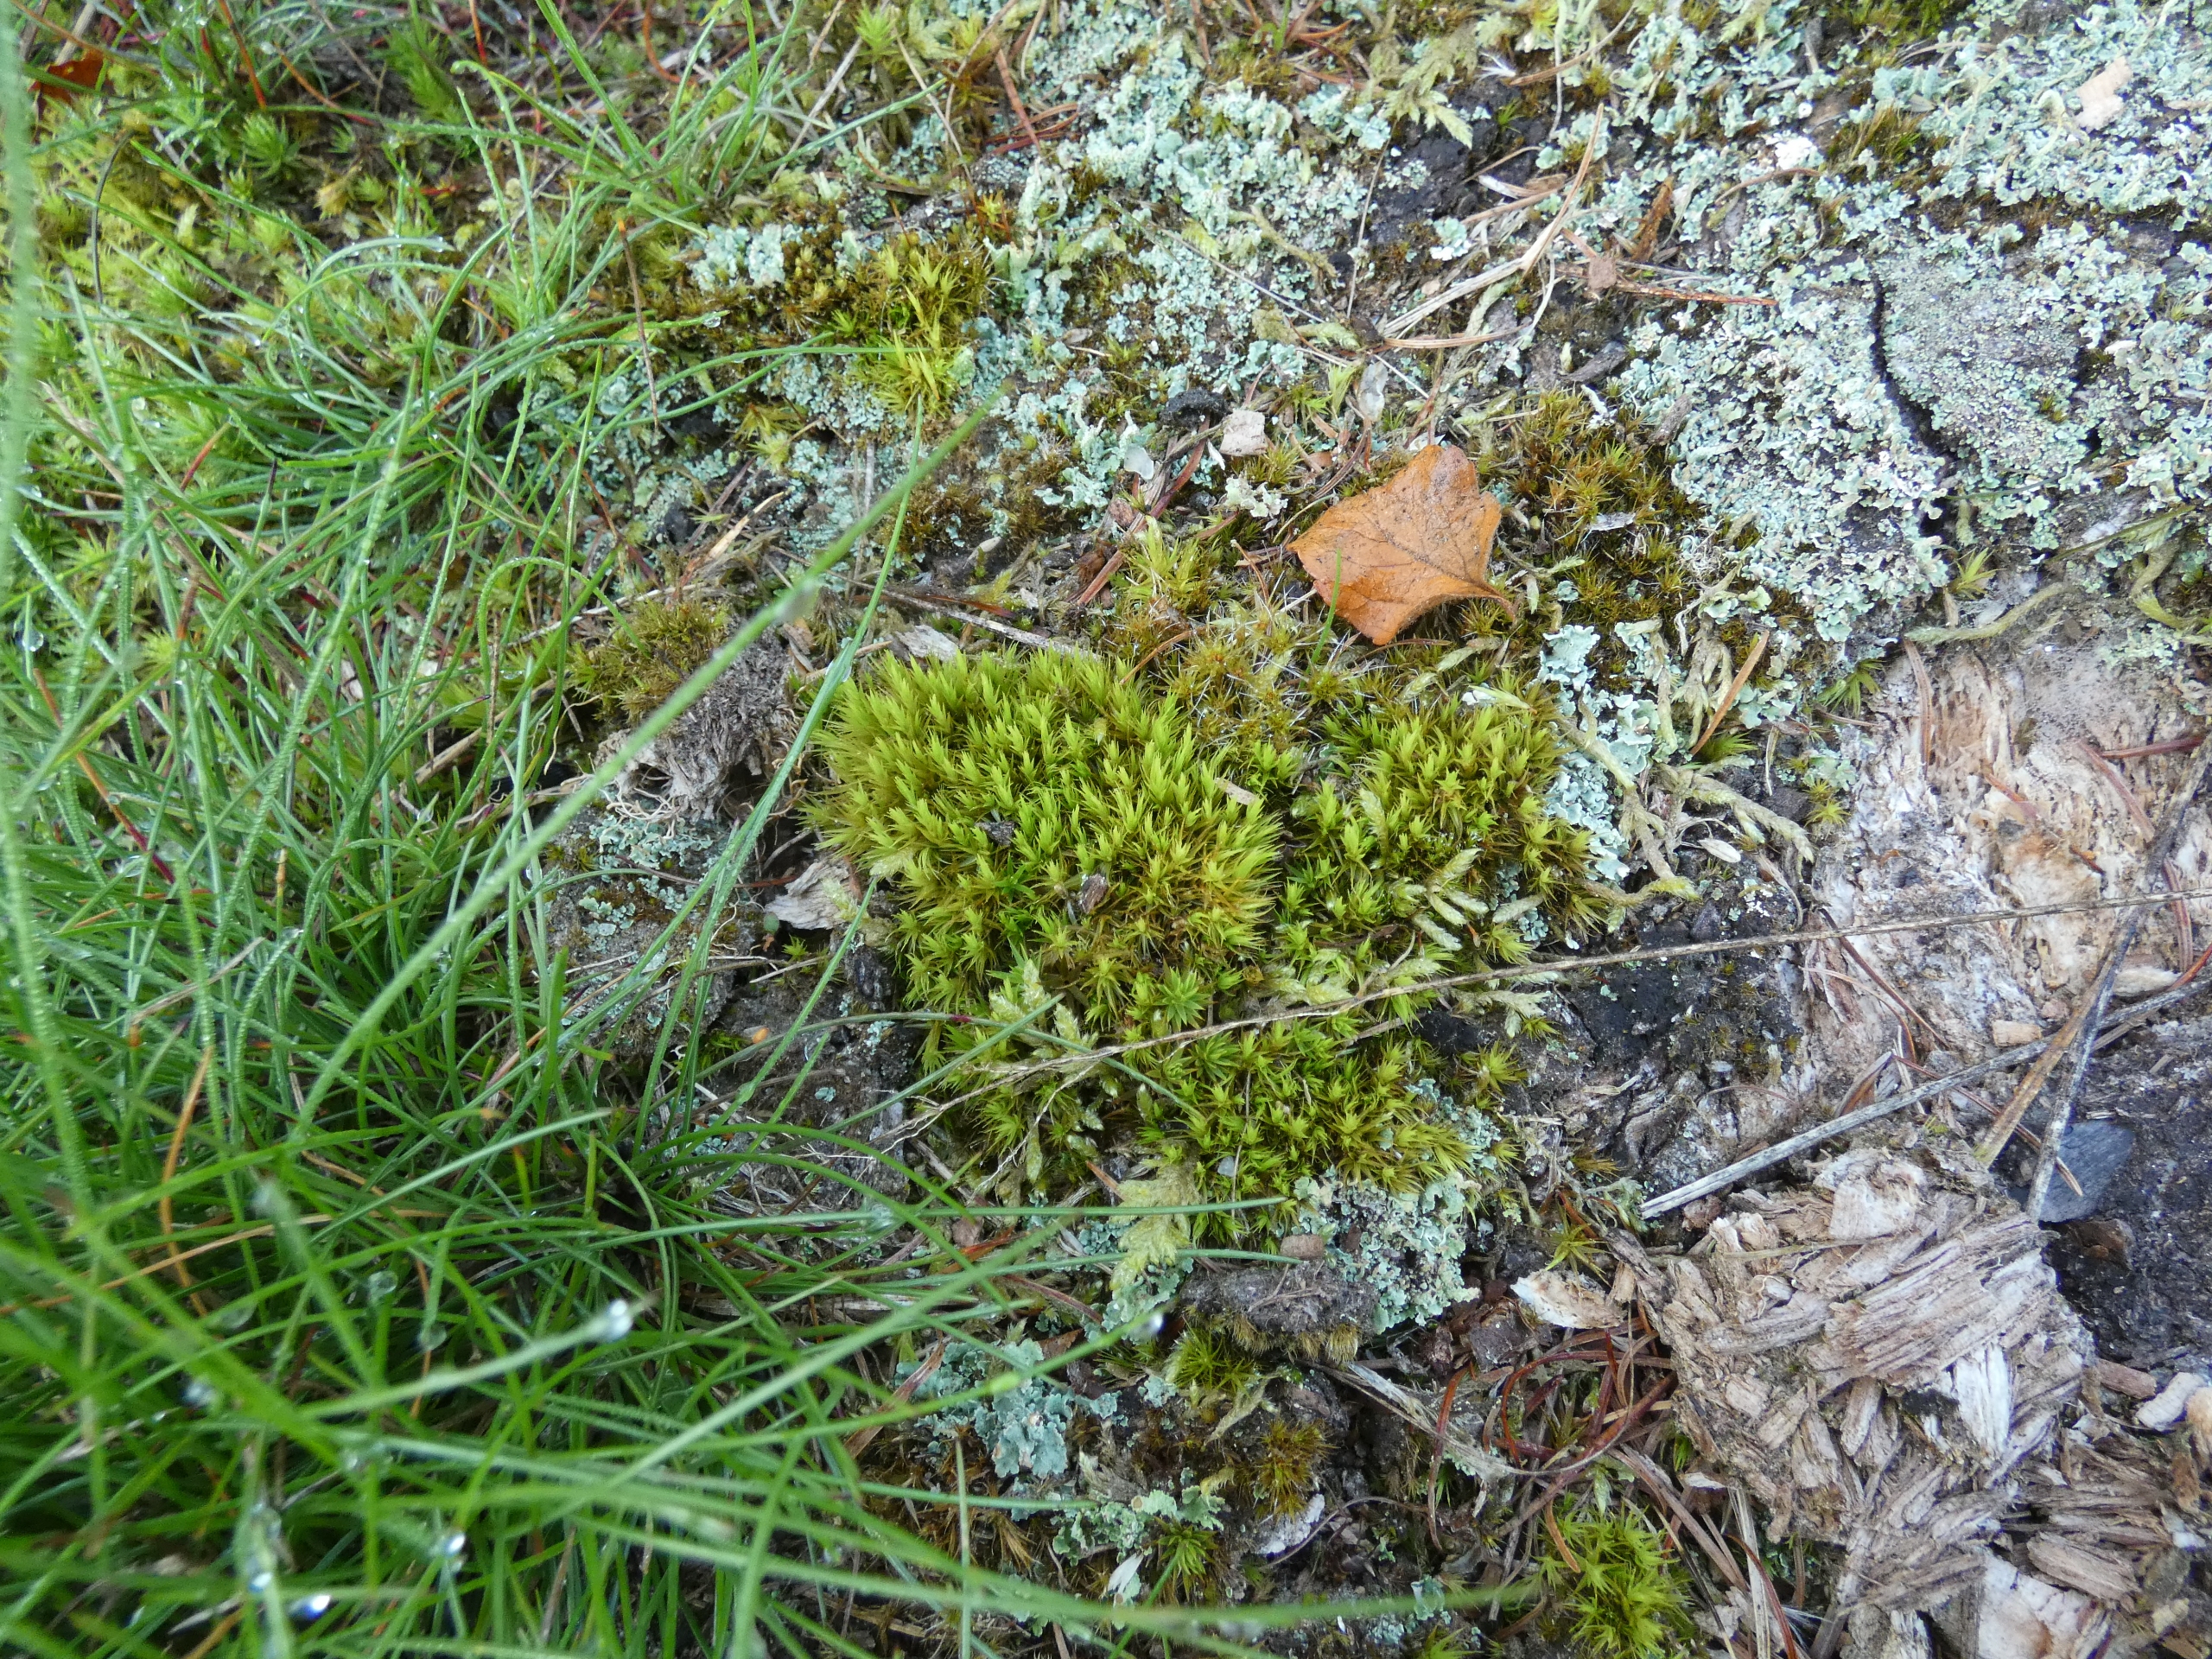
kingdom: Plantae
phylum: Bryophyta
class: Bryopsida
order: Dicranales
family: Dicranaceae
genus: Dicranum
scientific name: Dicranum
